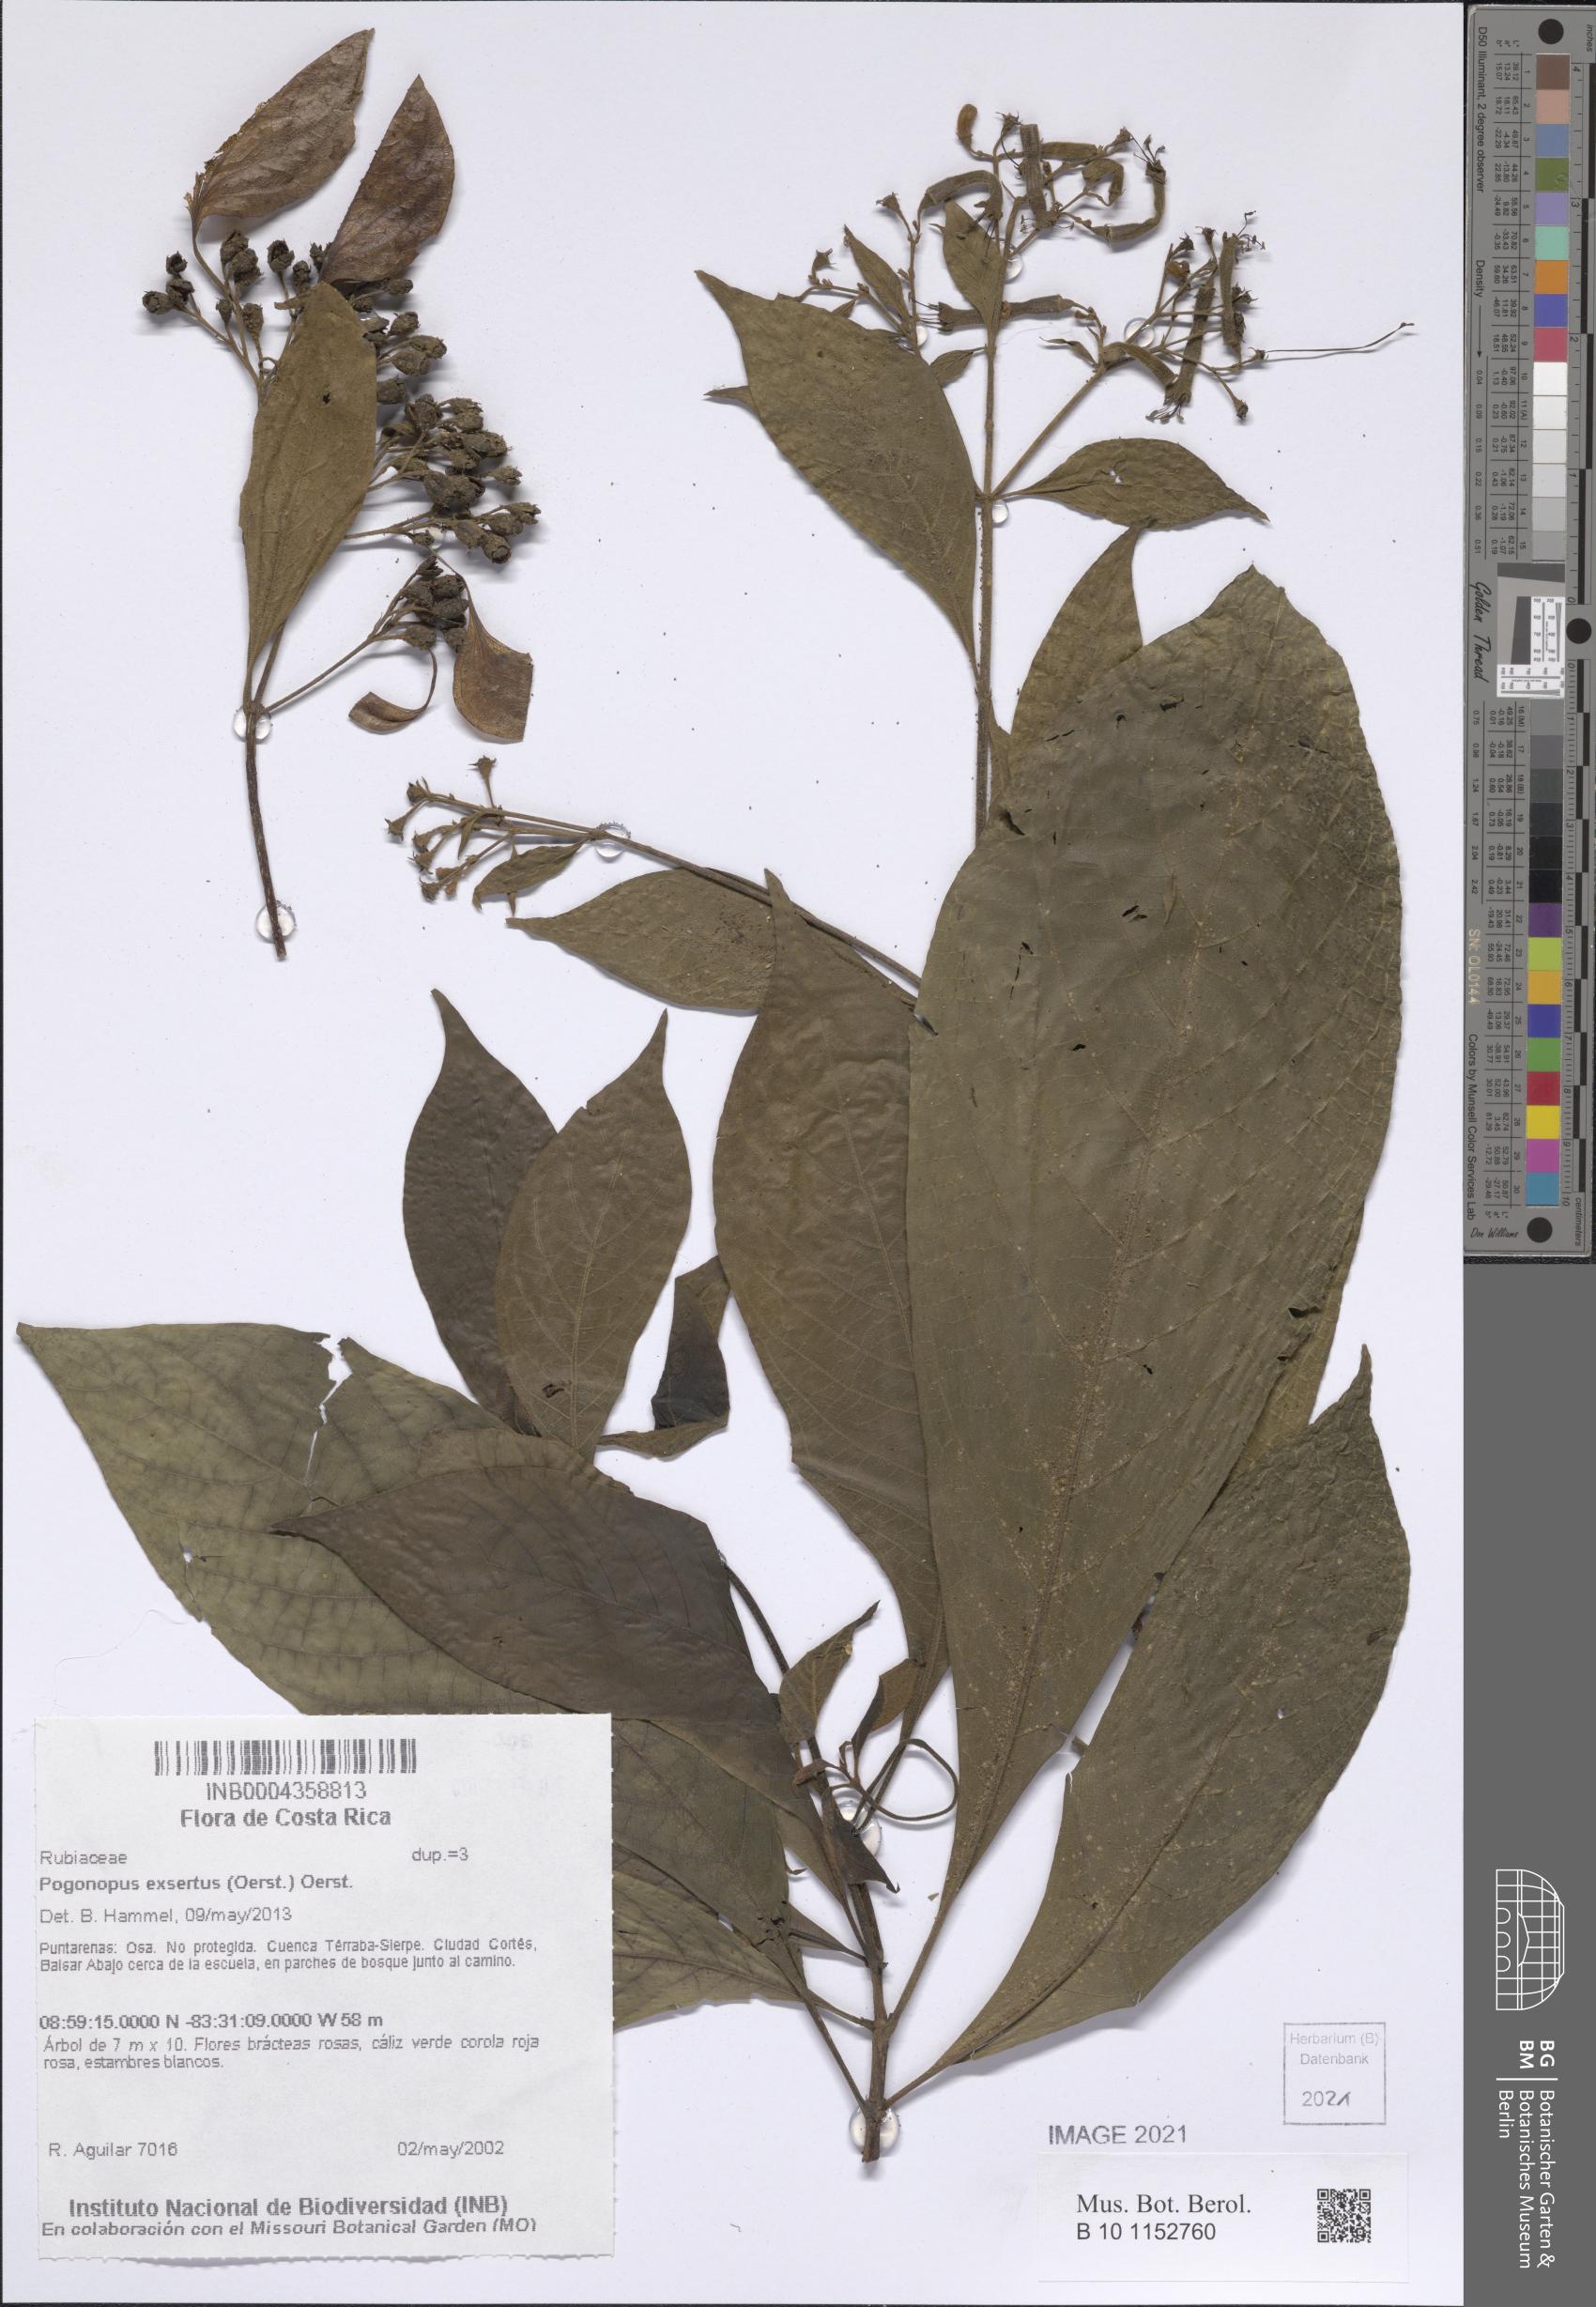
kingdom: Plantae
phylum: Tracheophyta
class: Magnoliopsida
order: Gentianales
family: Rubiaceae
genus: Pogonopus
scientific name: Pogonopus exsertus
